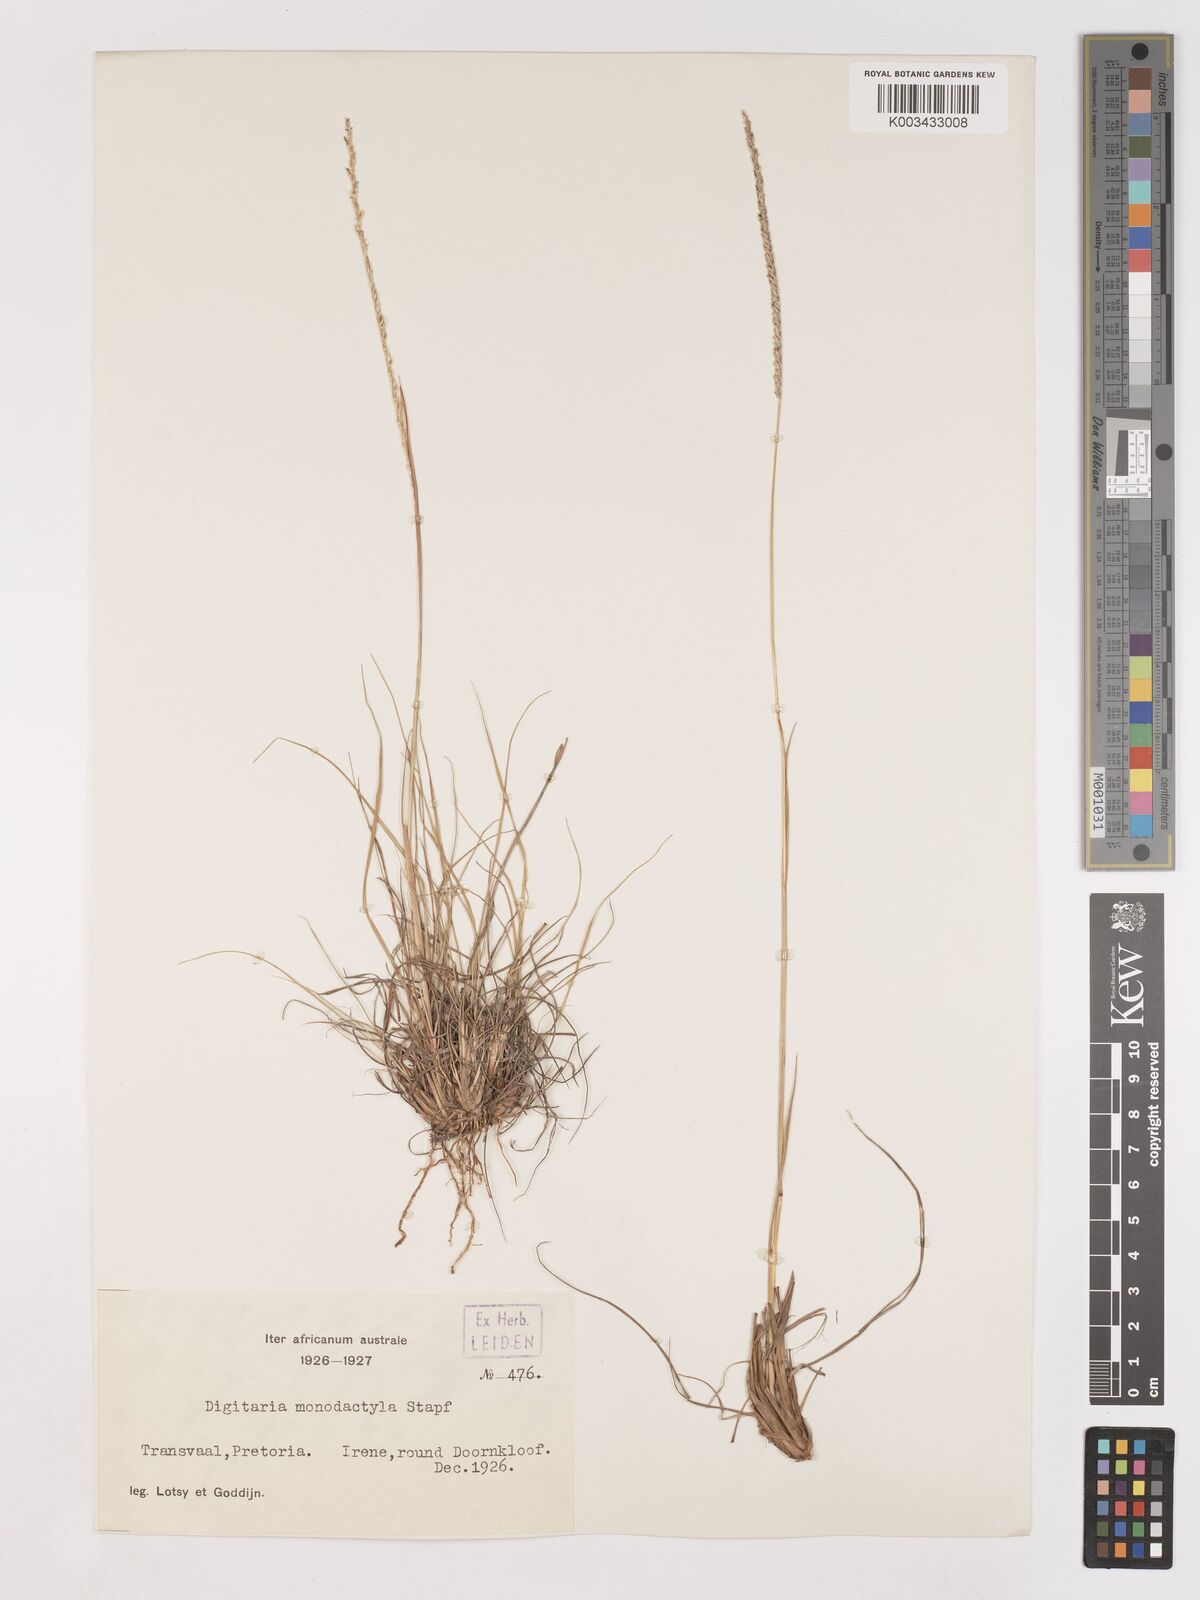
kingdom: Plantae
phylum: Tracheophyta
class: Liliopsida
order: Poales
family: Poaceae
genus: Digitaria
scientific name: Digitaria monodactyla
